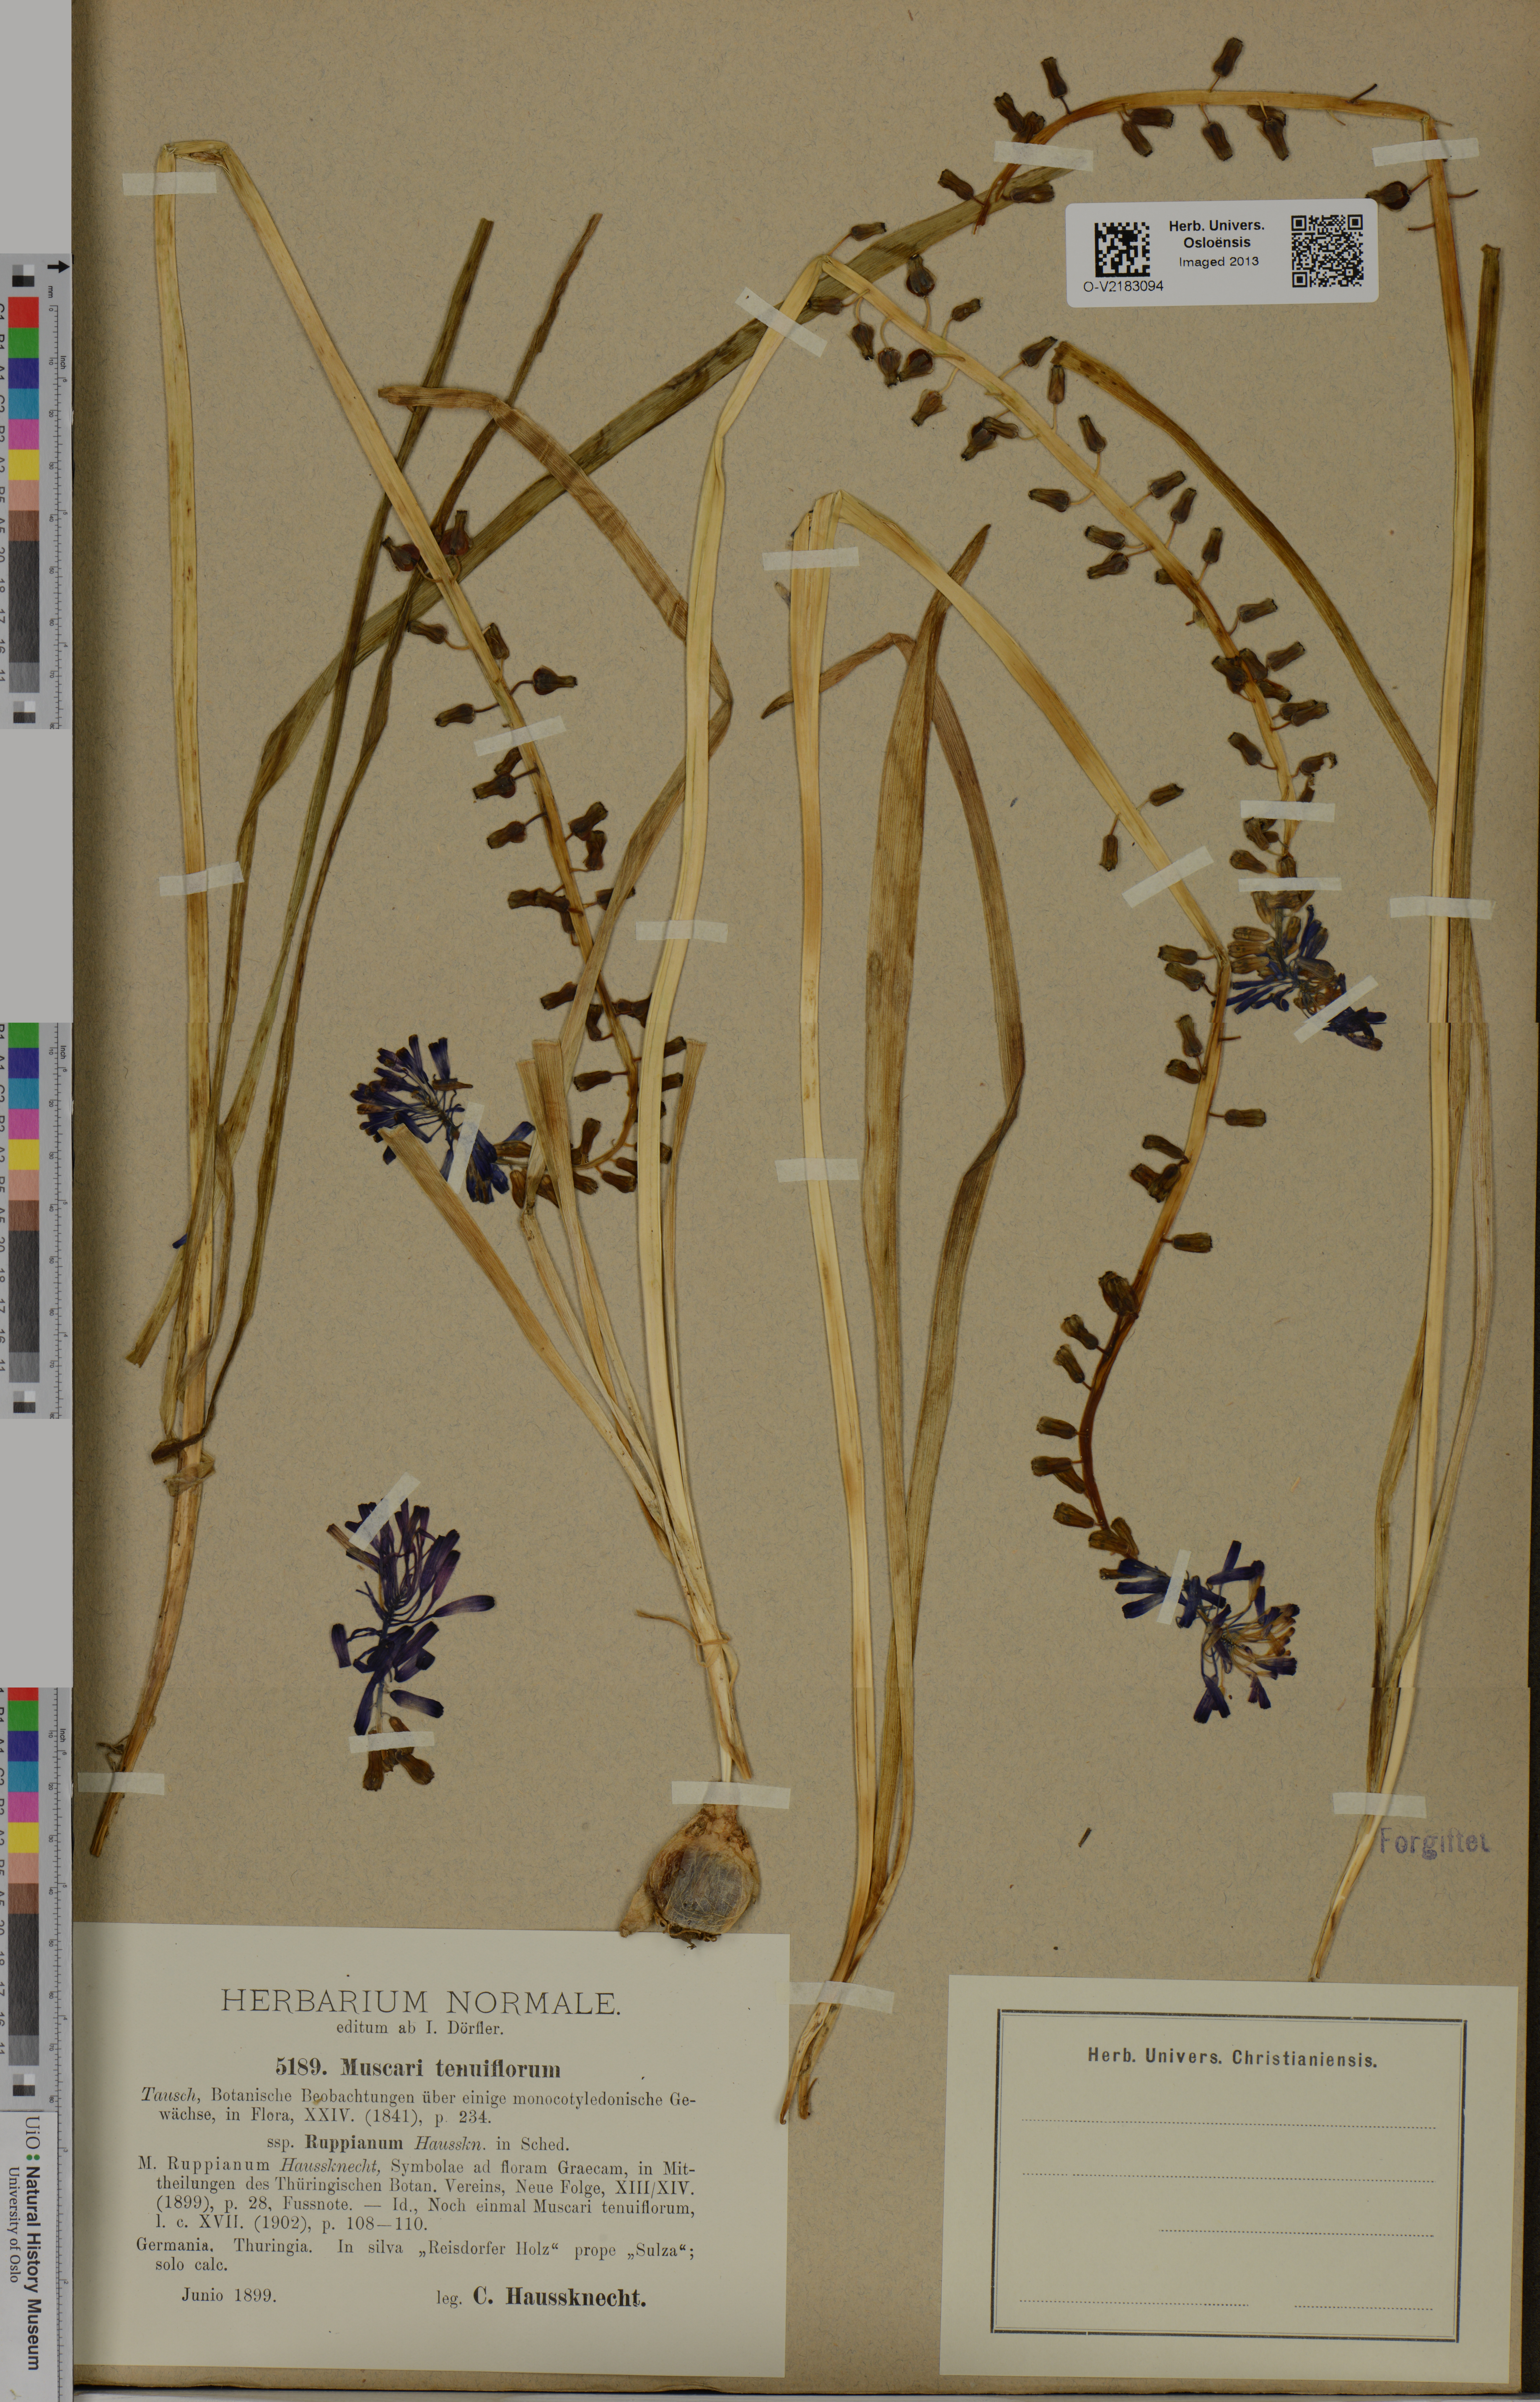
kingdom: Plantae
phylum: Tracheophyta
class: Liliopsida
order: Asparagales
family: Asparagaceae
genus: Muscari
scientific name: Muscari tenuiflorum
